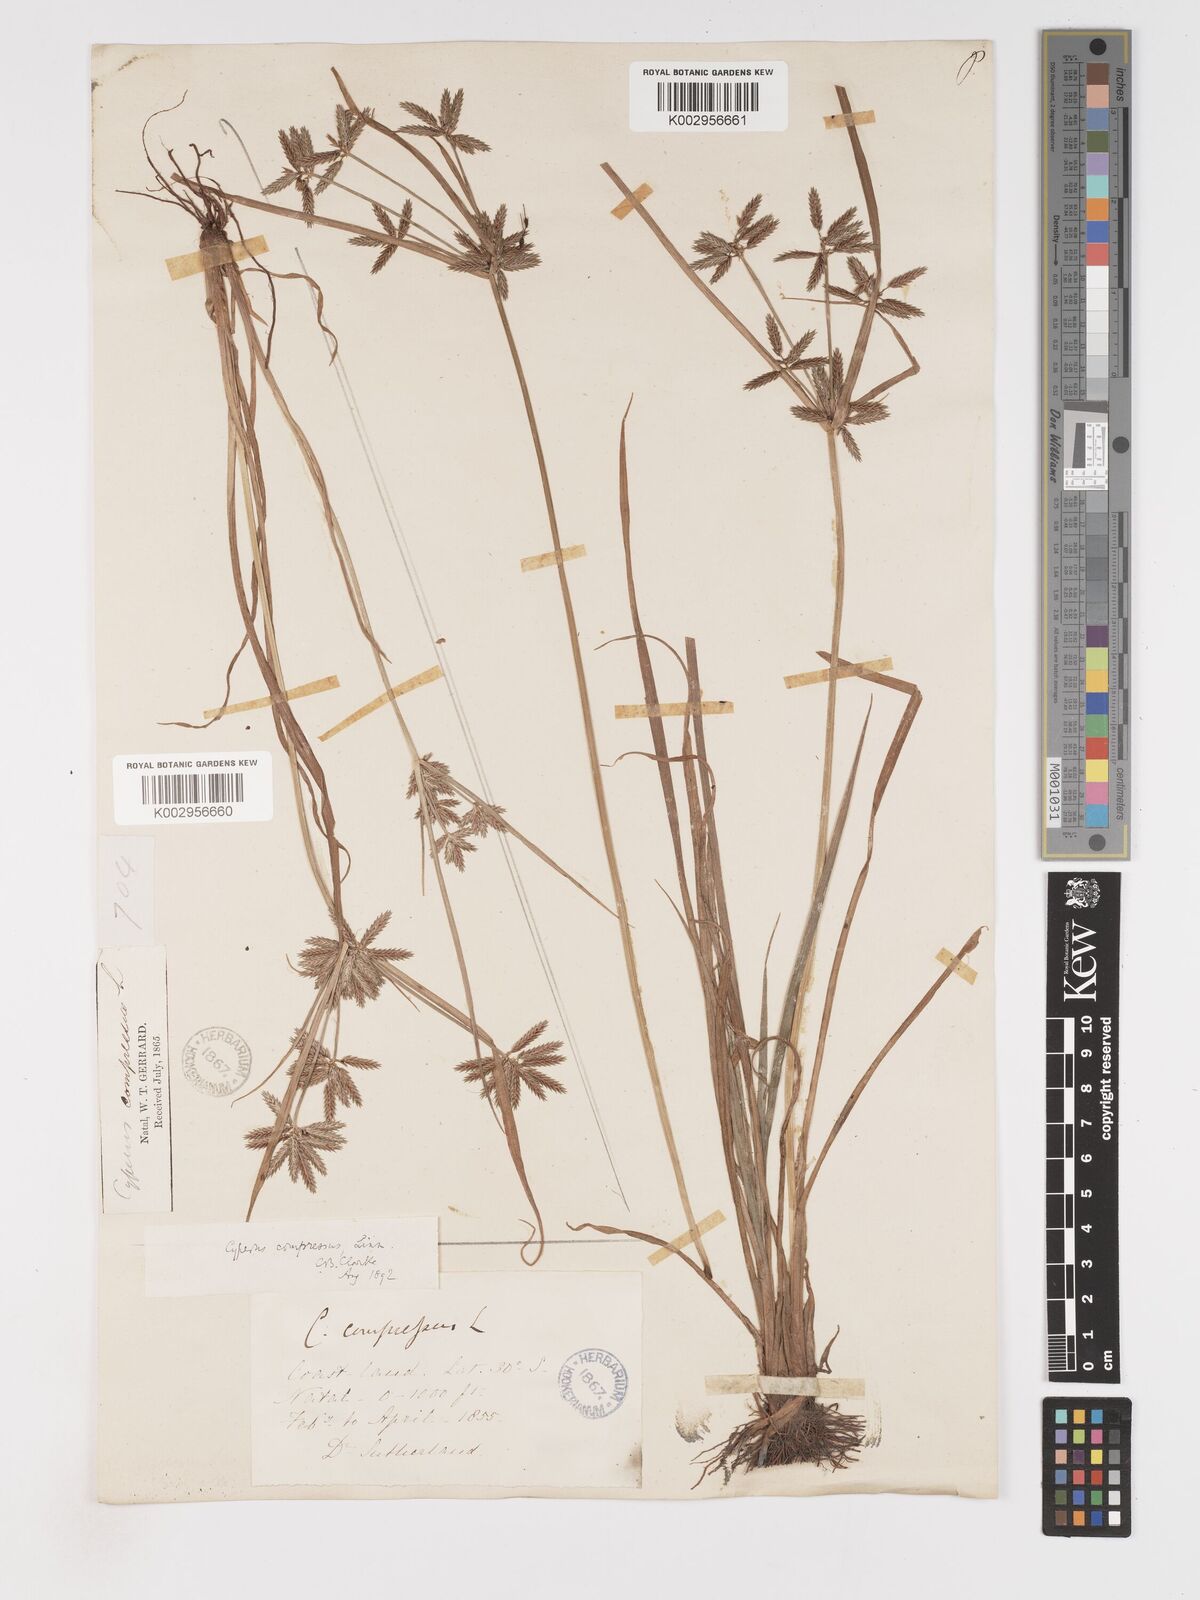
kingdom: Plantae
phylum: Tracheophyta
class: Liliopsida
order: Poales
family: Cyperaceae
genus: Cyperus
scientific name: Cyperus compressus
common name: Poorland flatsedge
